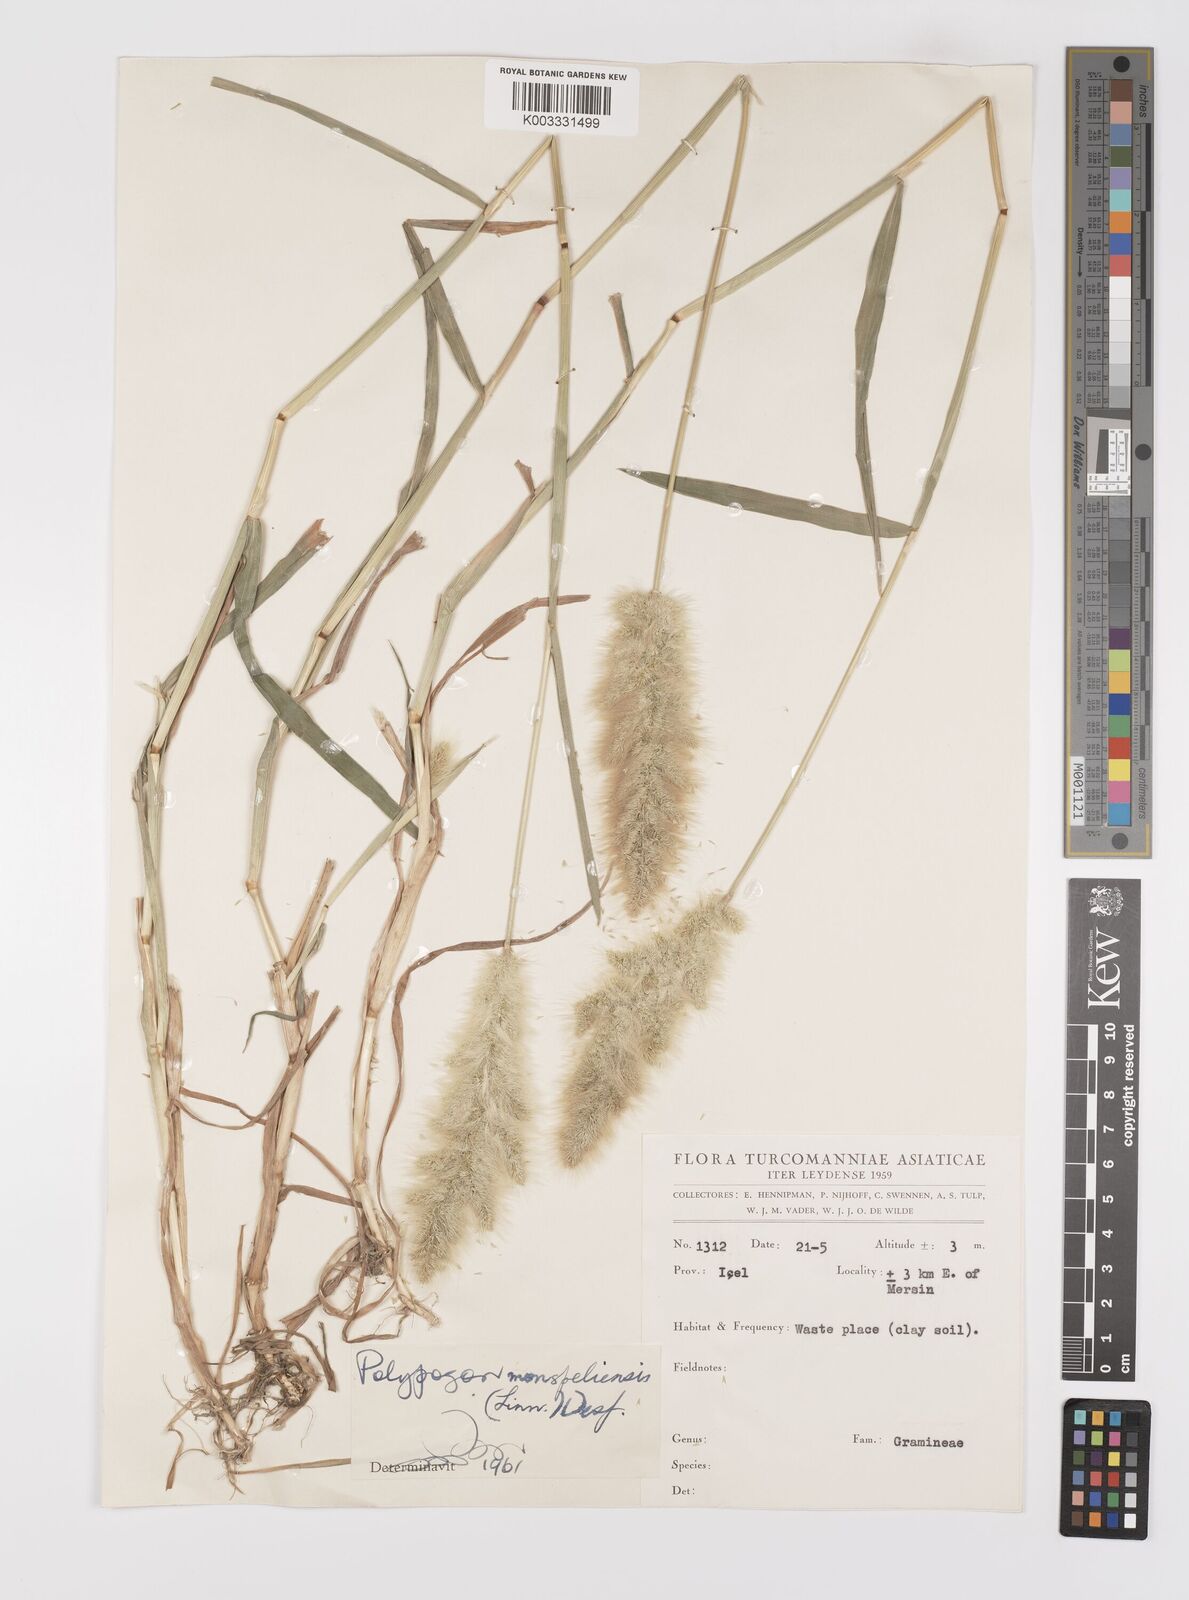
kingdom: Plantae
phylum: Tracheophyta
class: Liliopsida
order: Poales
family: Poaceae
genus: Polypogon
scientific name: Polypogon monspeliensis
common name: Annual rabbitsfoot grass
